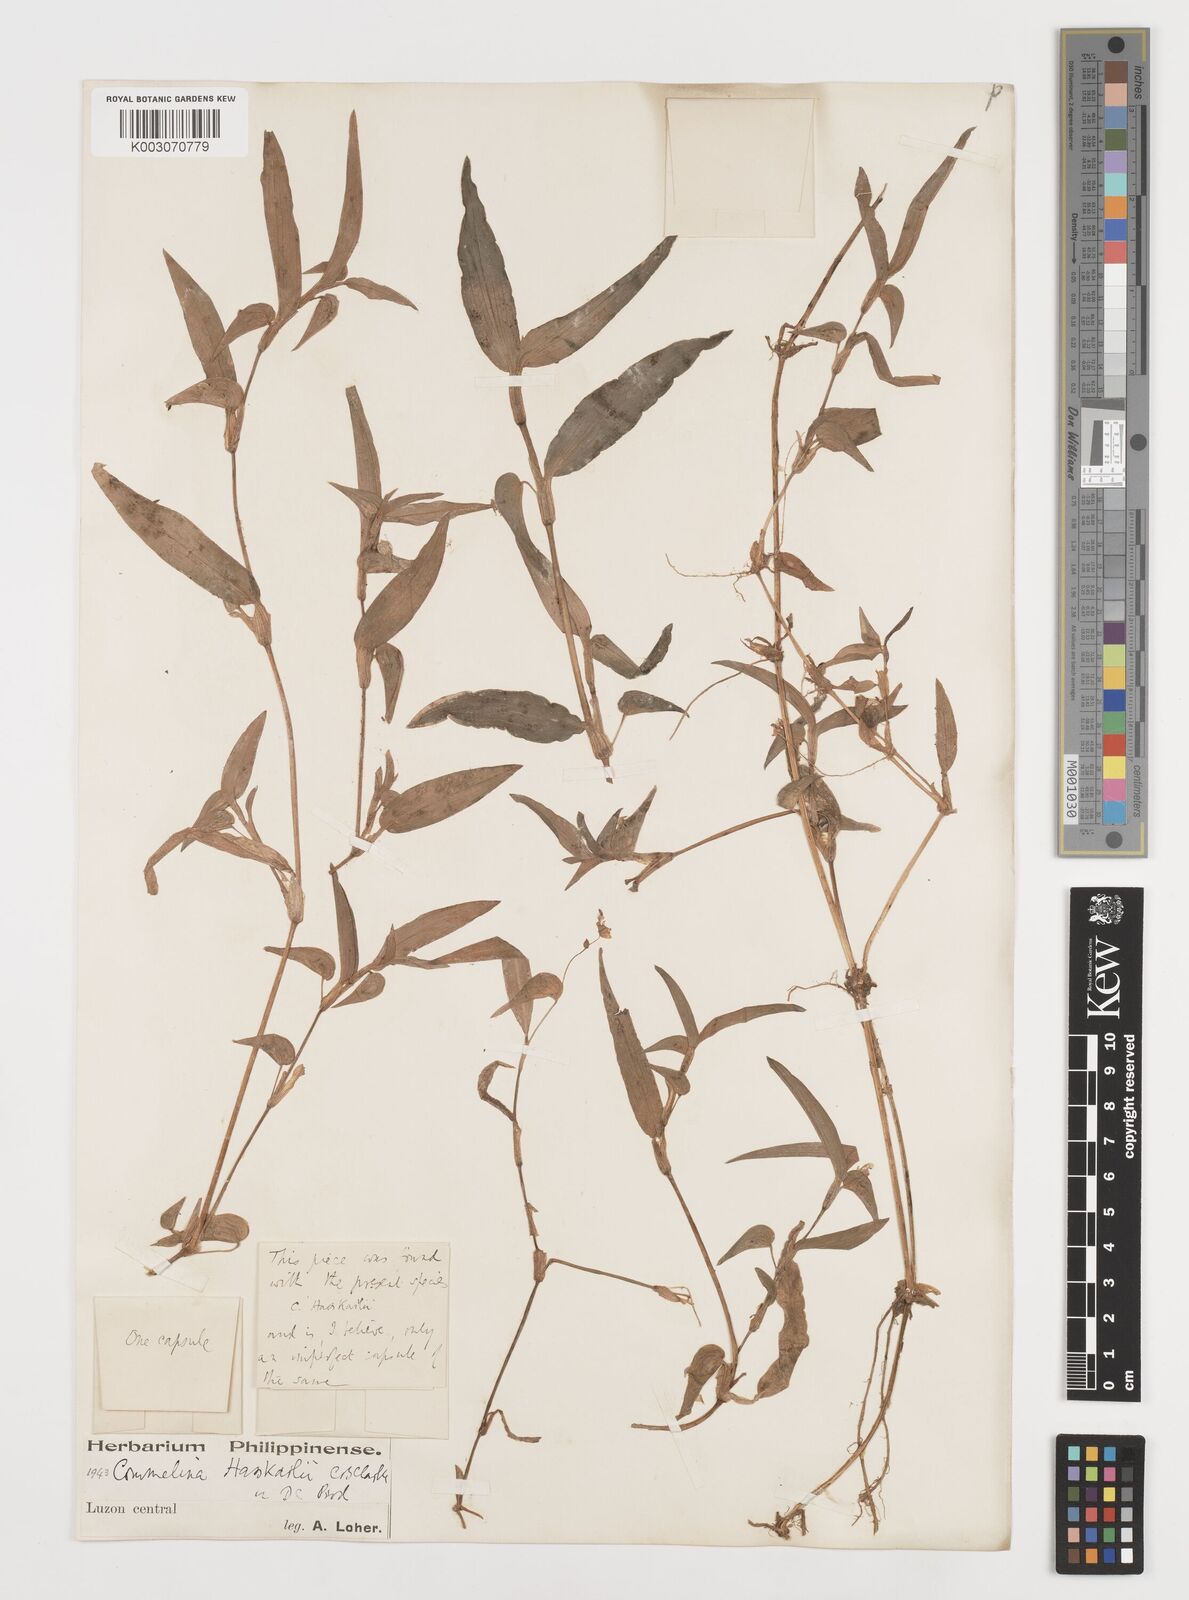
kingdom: Plantae
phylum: Tracheophyta
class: Liliopsida
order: Commelinales
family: Commelinaceae
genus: Commelina
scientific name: Commelina caroliniana
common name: Carolina dayflower
